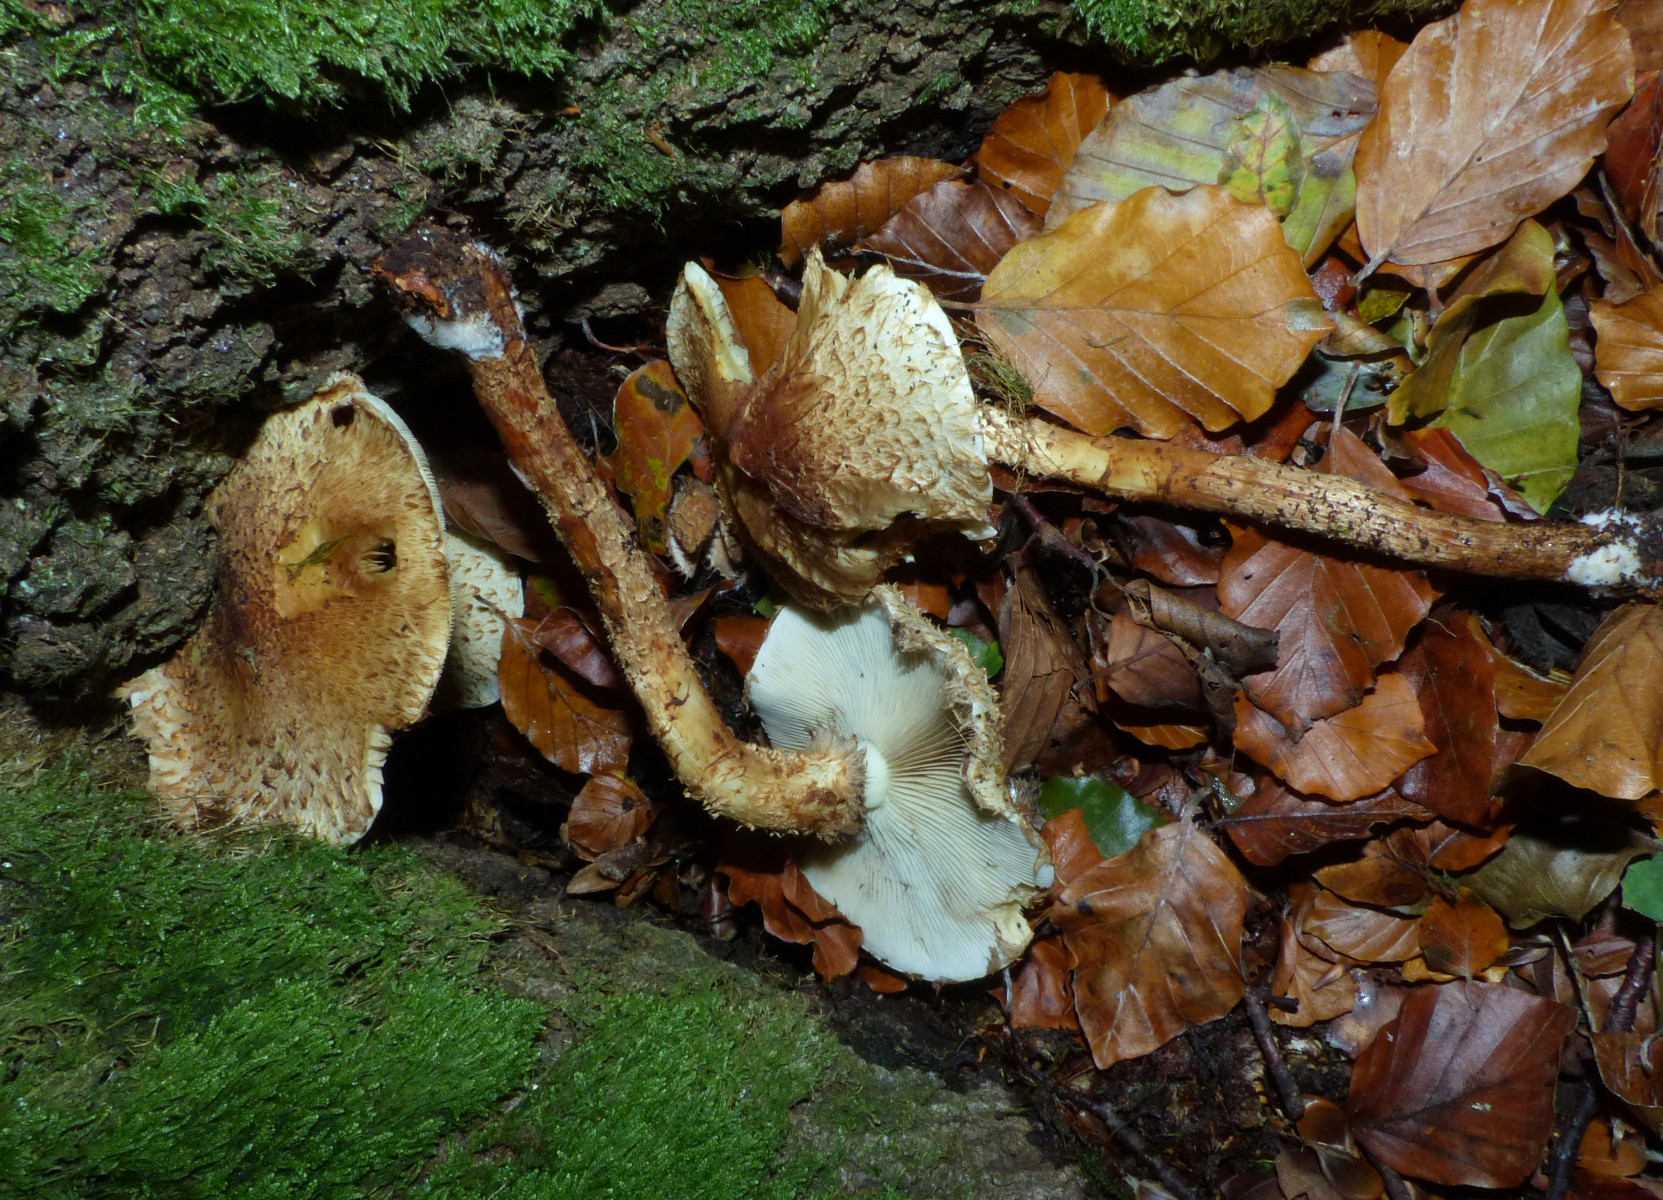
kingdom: Fungi
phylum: Basidiomycota
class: Agaricomycetes
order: Agaricales
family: Strophariaceae
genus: Pholiota
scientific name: Pholiota squarrosa
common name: krumskællet skælhat
